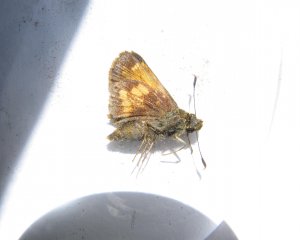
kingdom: Animalia
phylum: Arthropoda
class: Insecta
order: Lepidoptera
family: Hesperiidae
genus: Lon
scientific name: Lon hobomok
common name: Hobomok Skipper
